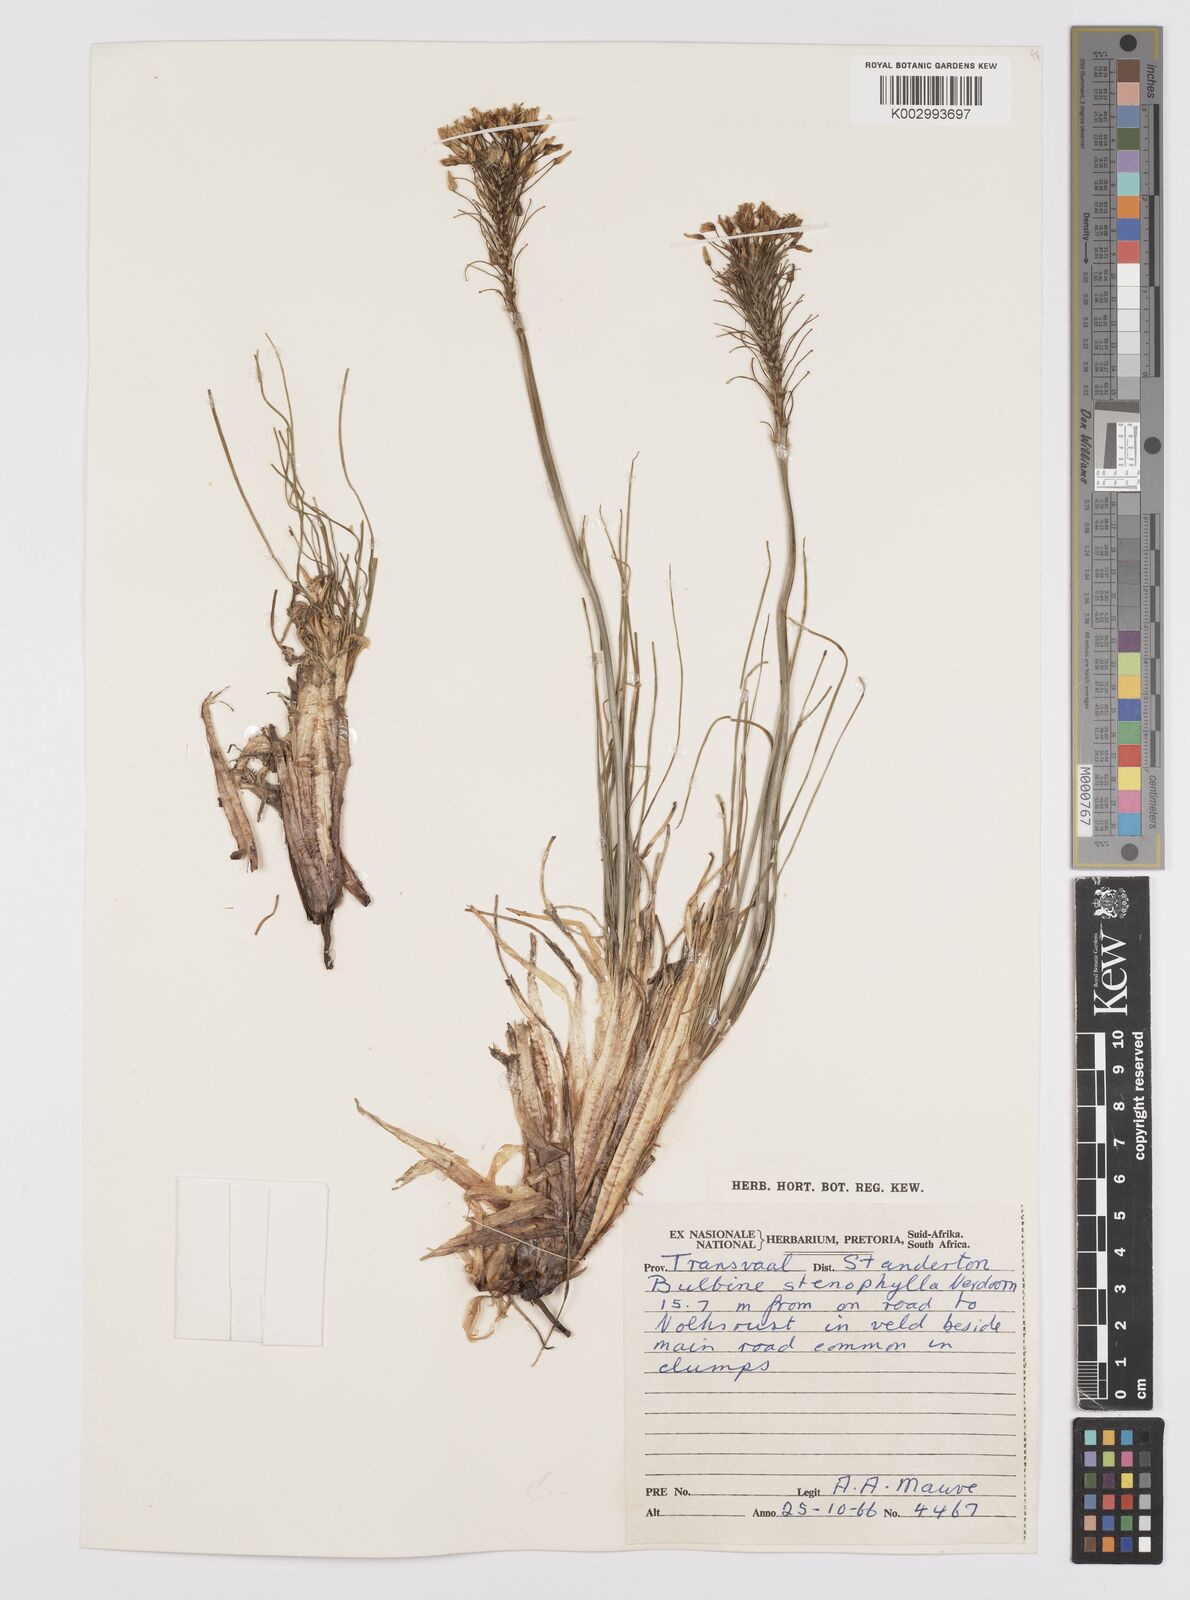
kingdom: Plantae
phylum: Tracheophyta
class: Liliopsida
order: Asparagales
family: Asphodelaceae
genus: Bulbine
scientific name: Bulbine capitata
